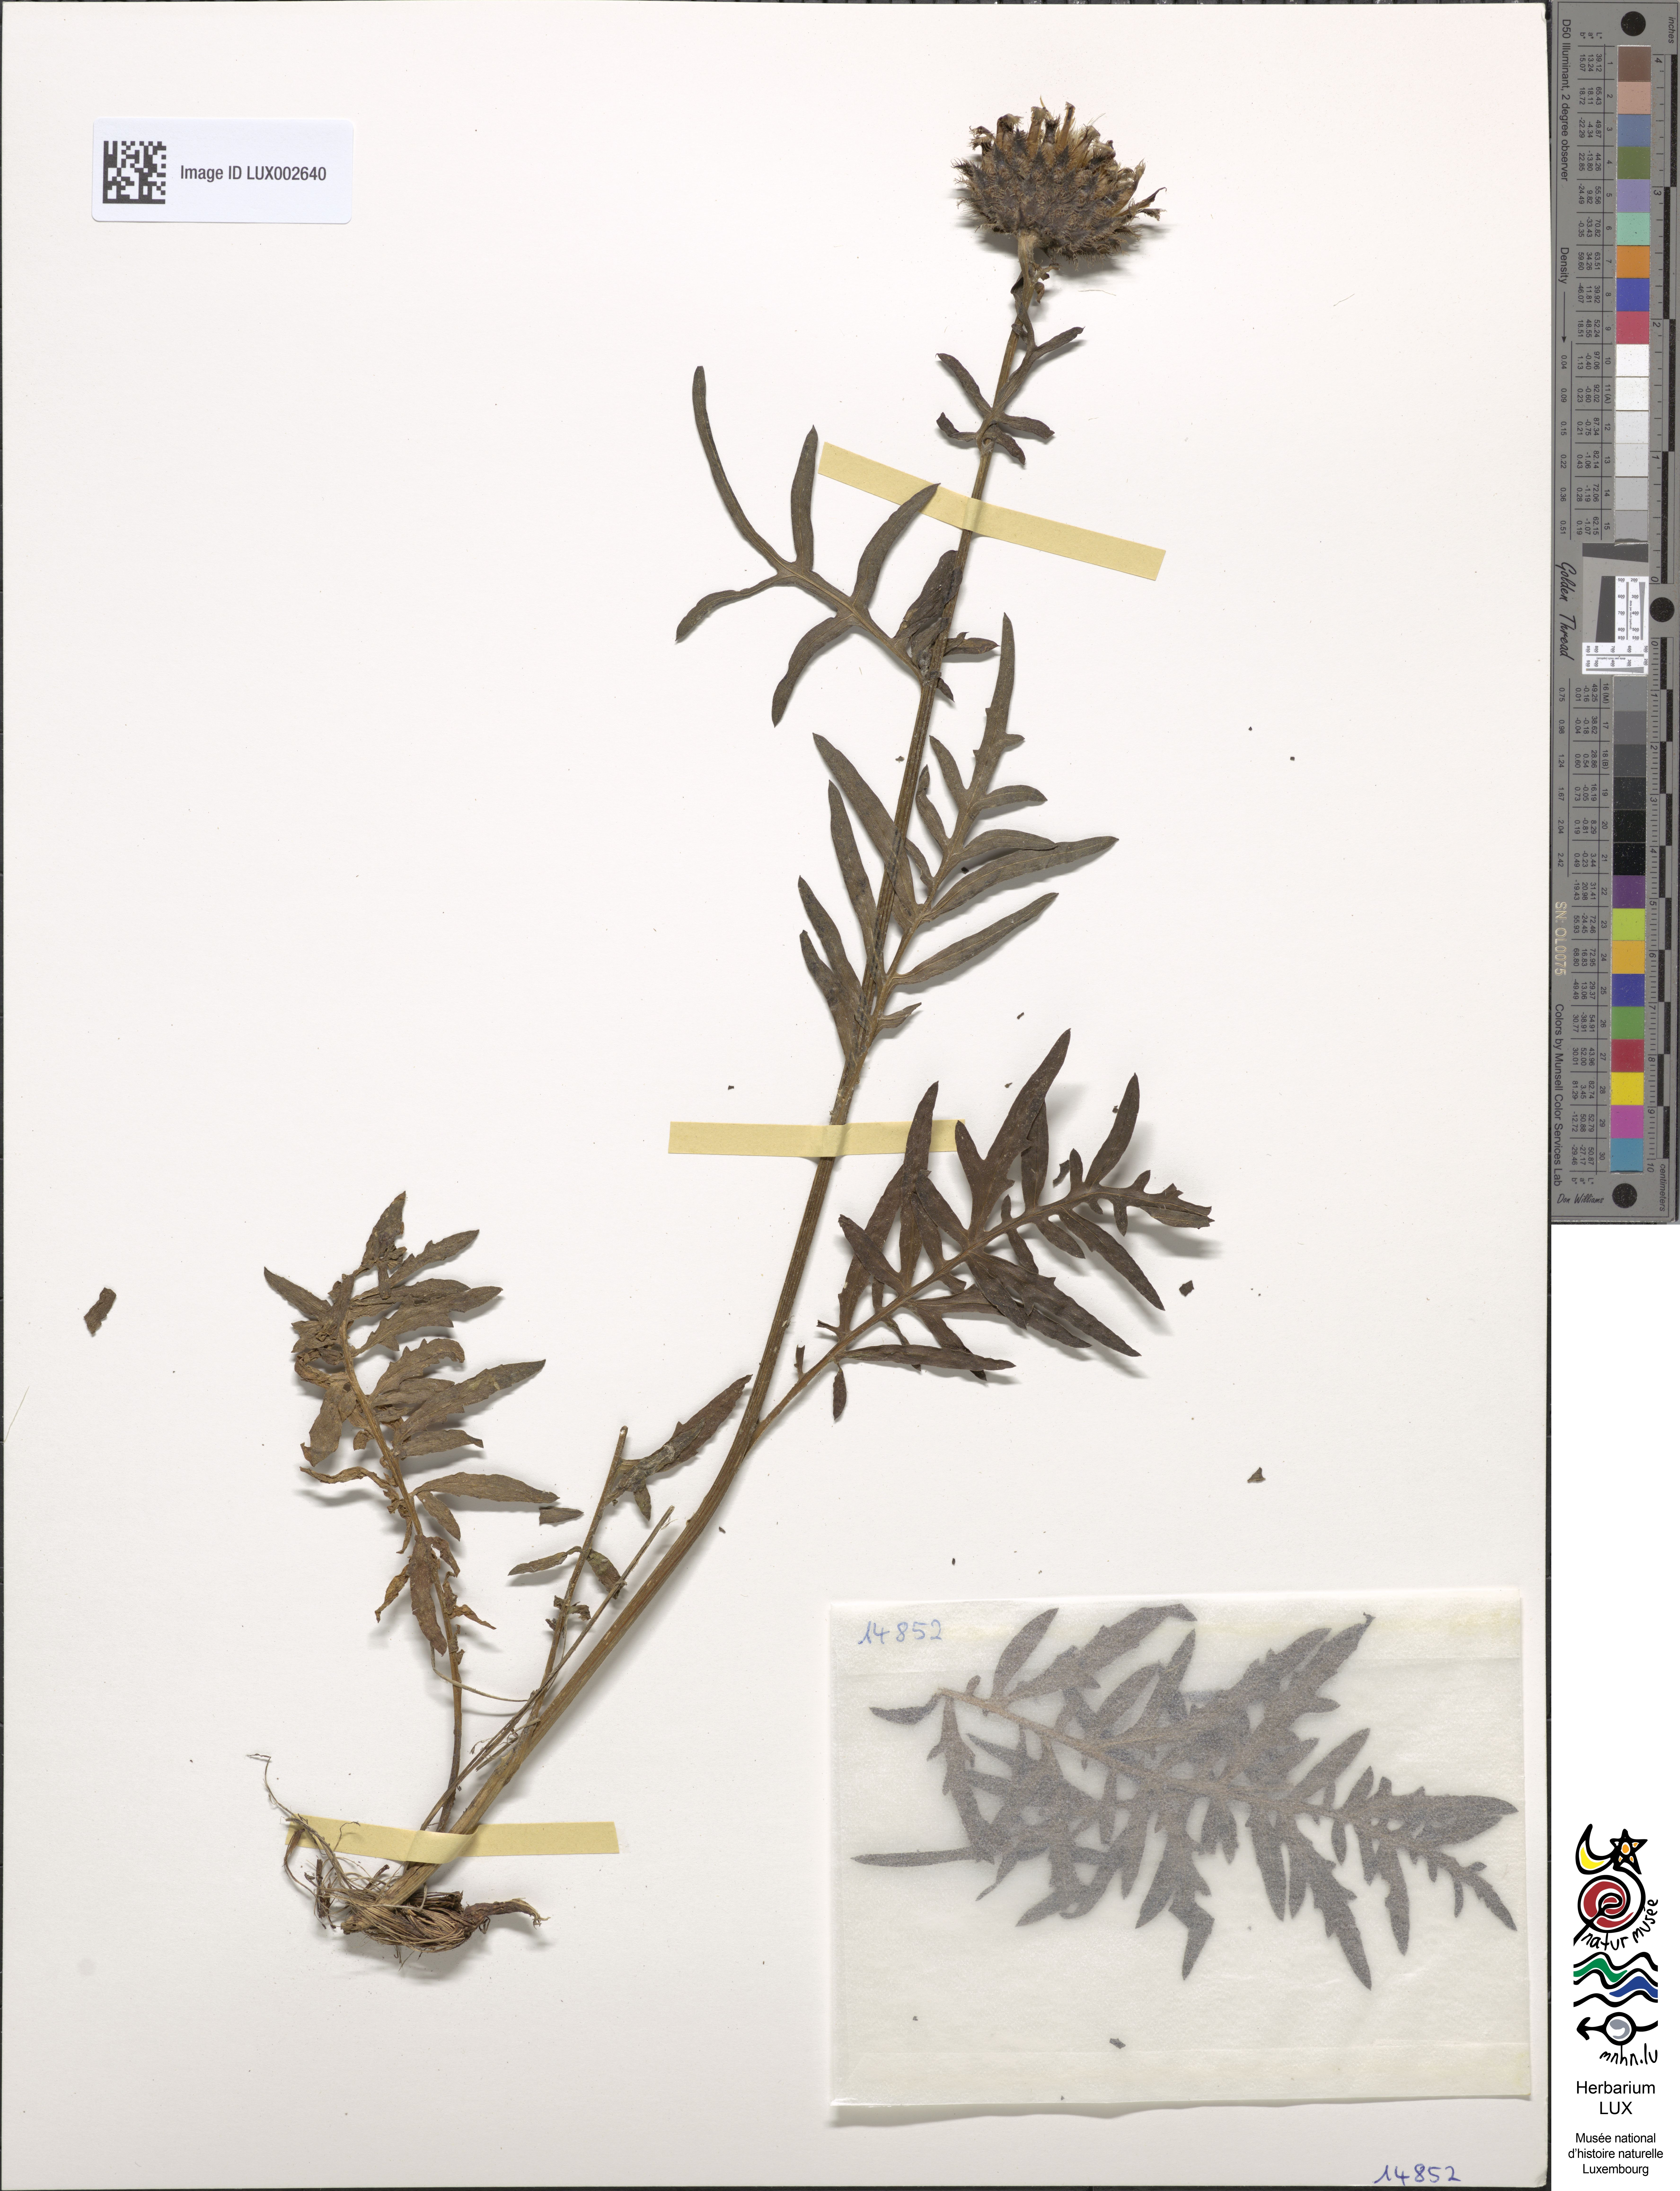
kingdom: Plantae
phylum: Tracheophyta
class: Magnoliopsida
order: Asterales
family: Asteraceae
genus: Centaurea
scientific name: Centaurea scabiosa
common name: Greater knapweed
